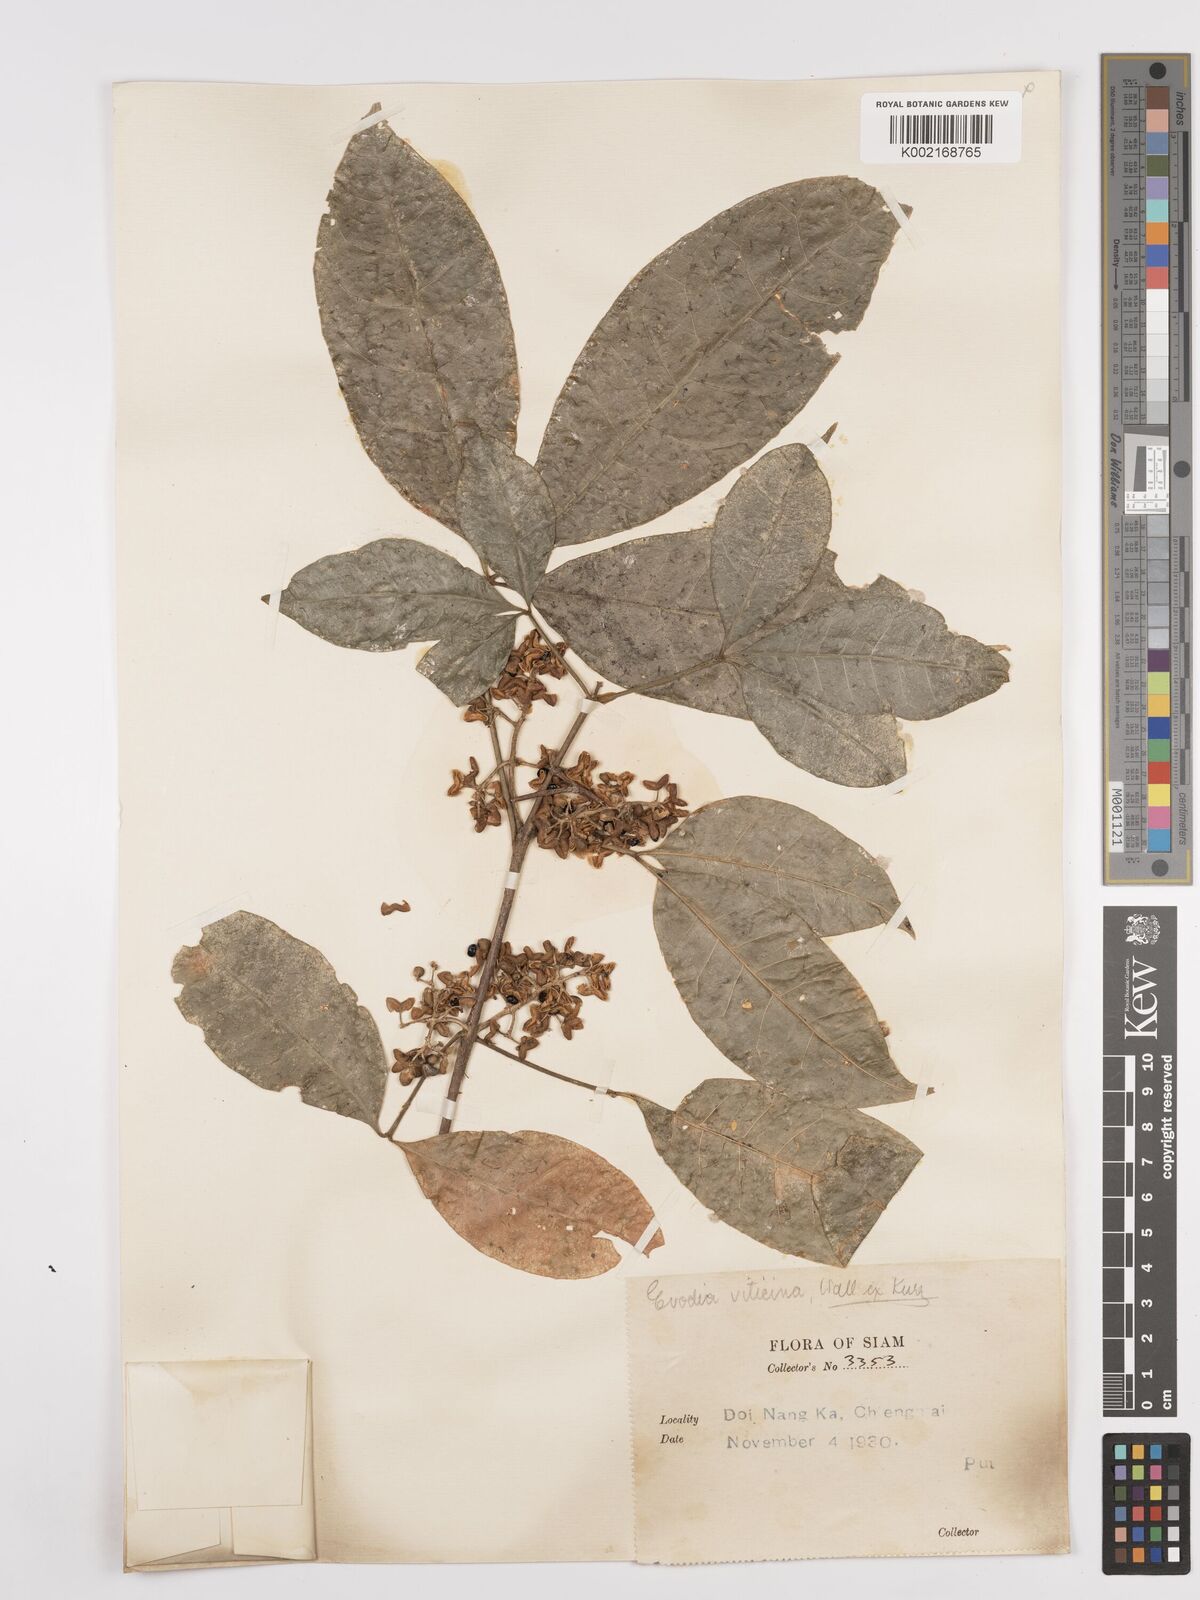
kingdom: Plantae
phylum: Tracheophyta
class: Magnoliopsida
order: Sapindales
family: Rutaceae
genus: Euodia
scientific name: Euodia
